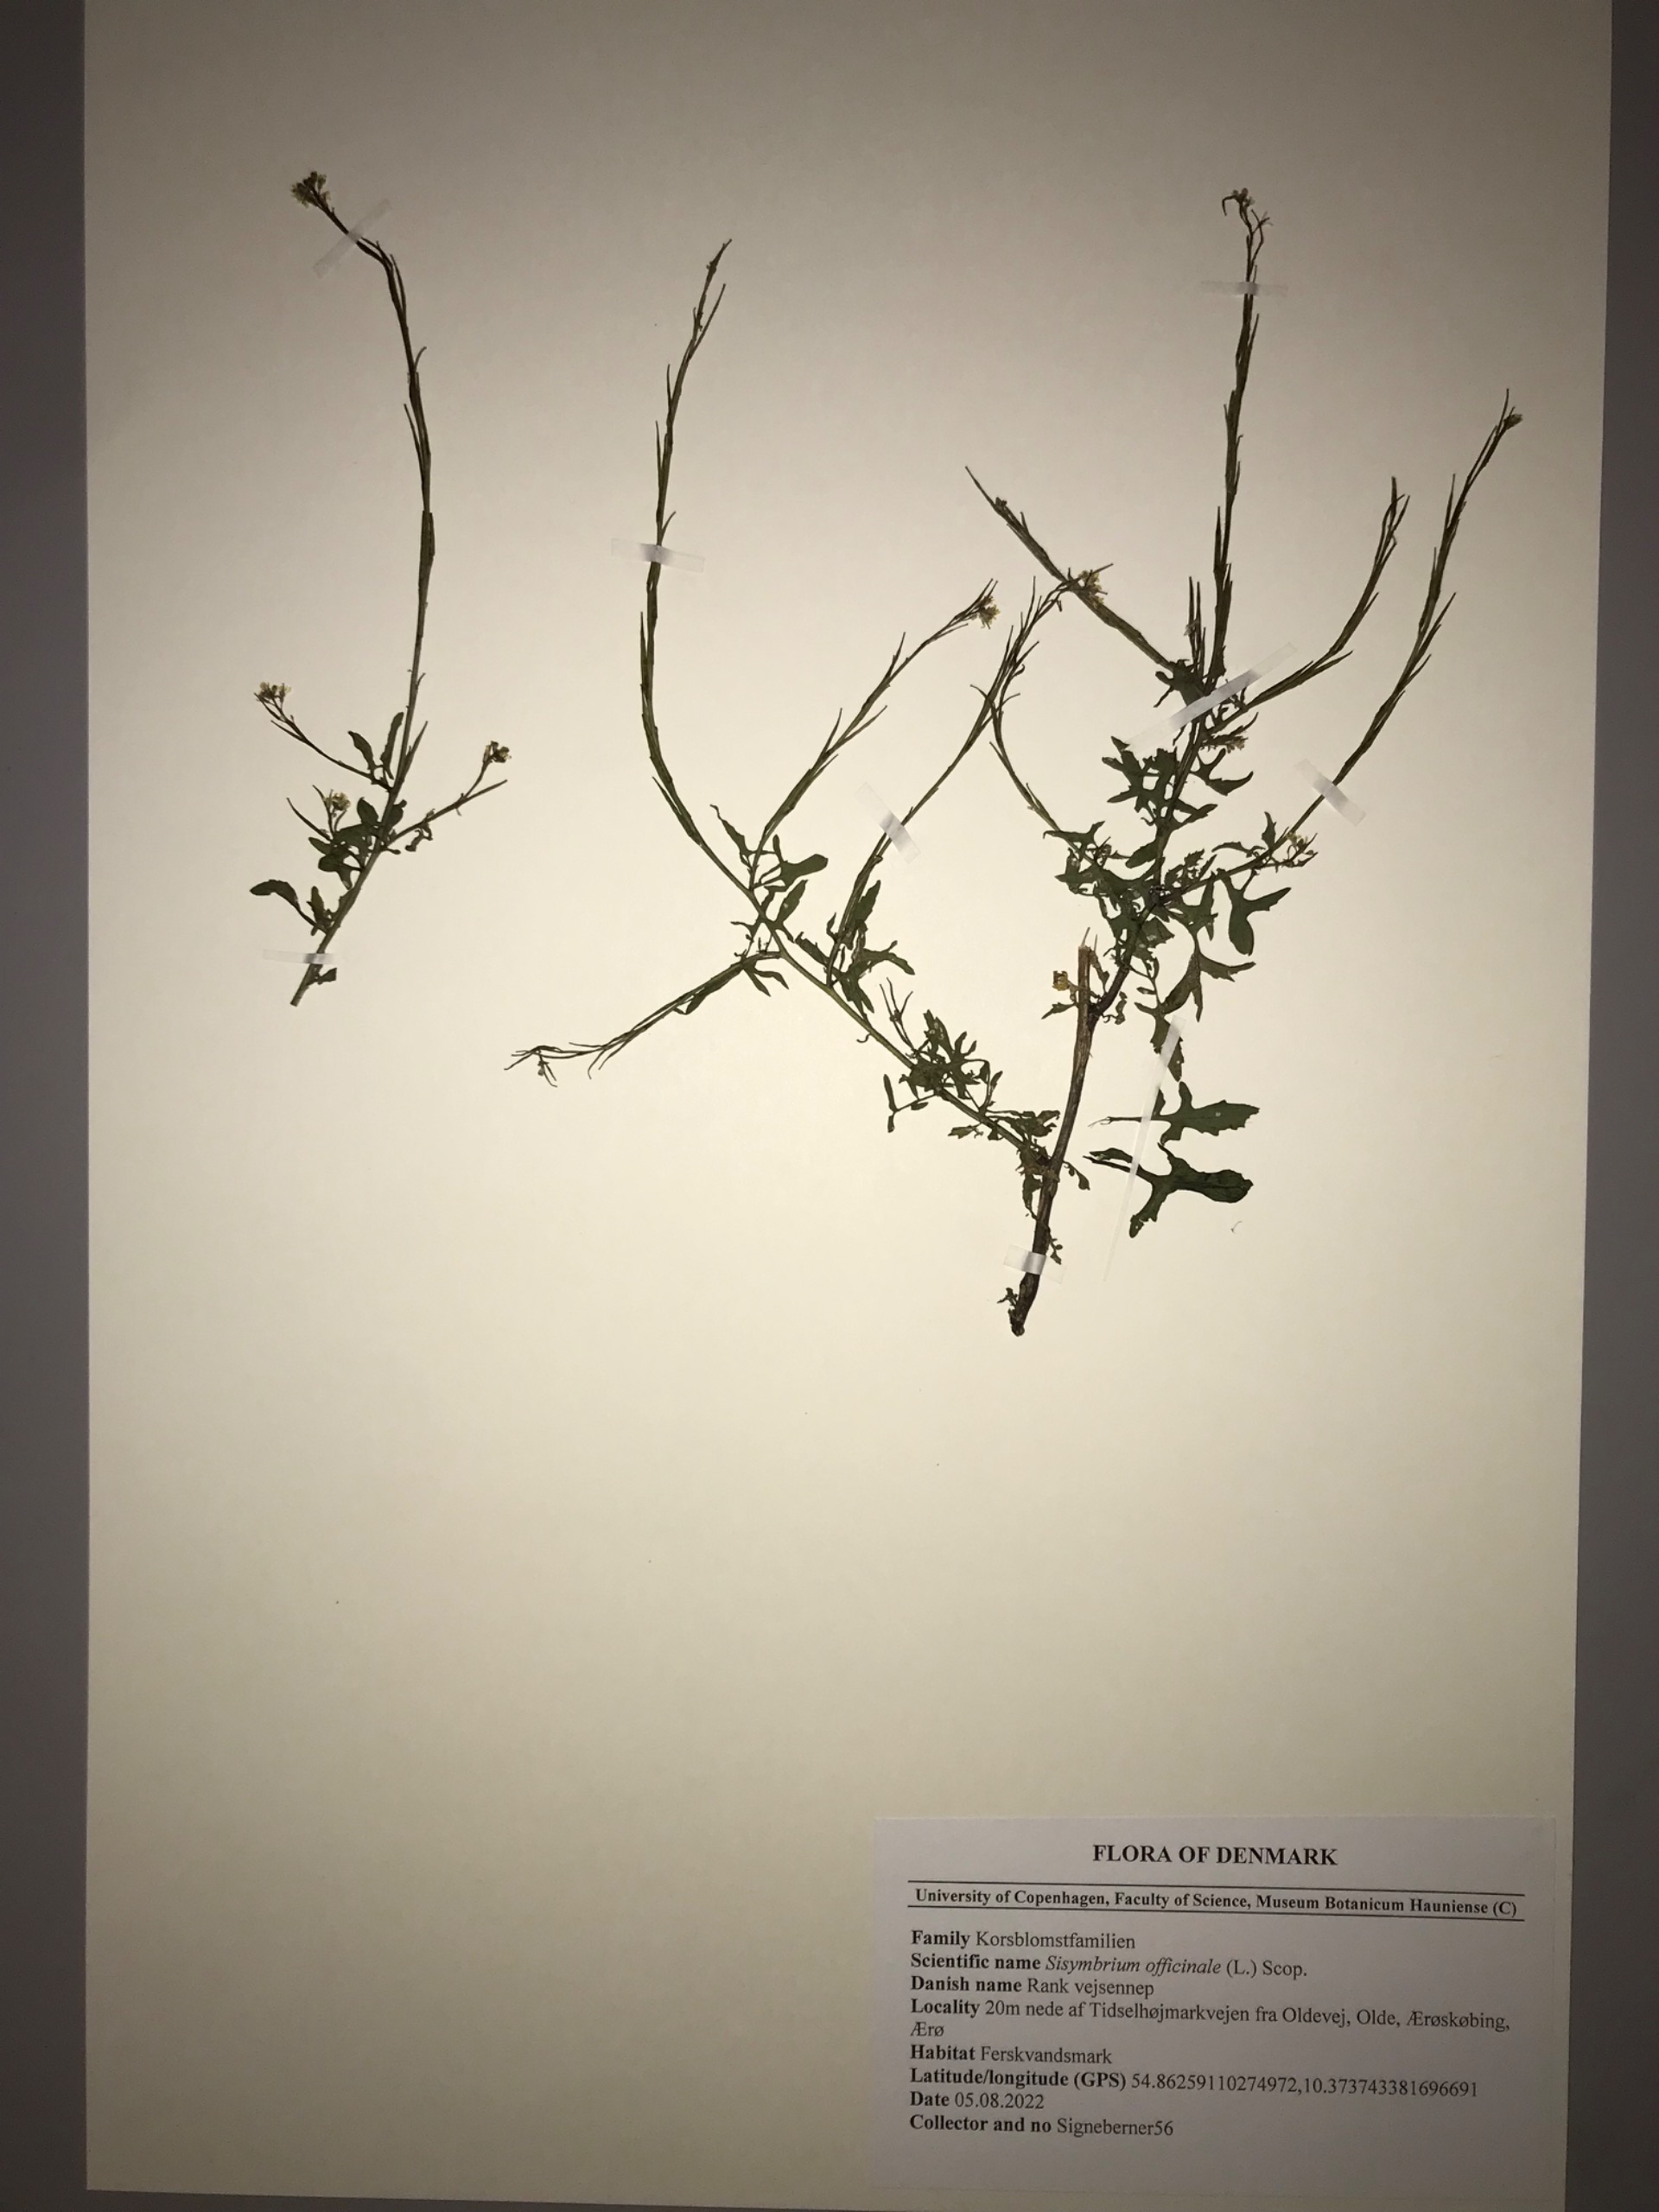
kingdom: Plantae
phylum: Tracheophyta
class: Magnoliopsida
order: Brassicales
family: Brassicaceae
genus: Sisymbrium
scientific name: Sisymbrium officinale
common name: Rank vejsennep
